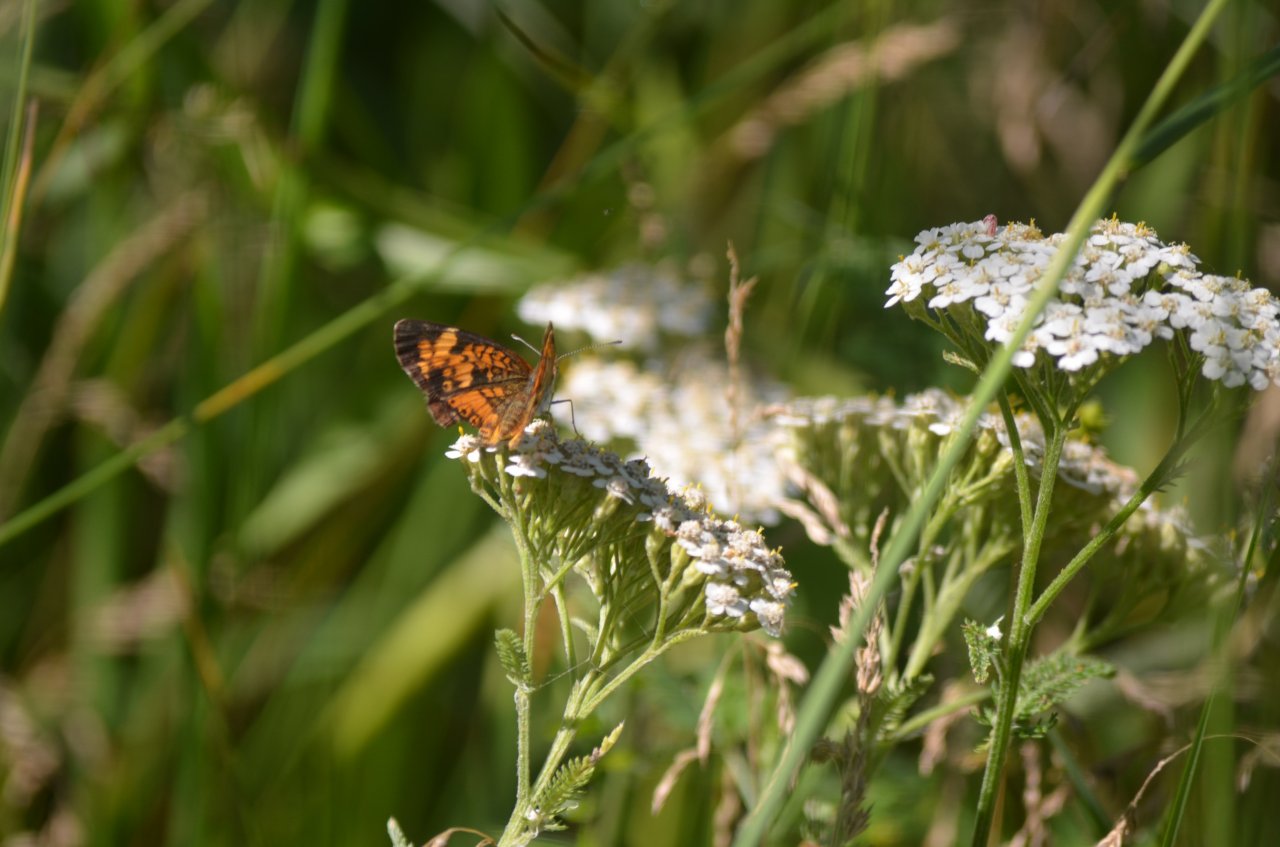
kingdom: Animalia
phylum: Arthropoda
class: Insecta
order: Lepidoptera
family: Nymphalidae
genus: Phyciodes
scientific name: Phyciodes tharos
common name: Northern Crescent
